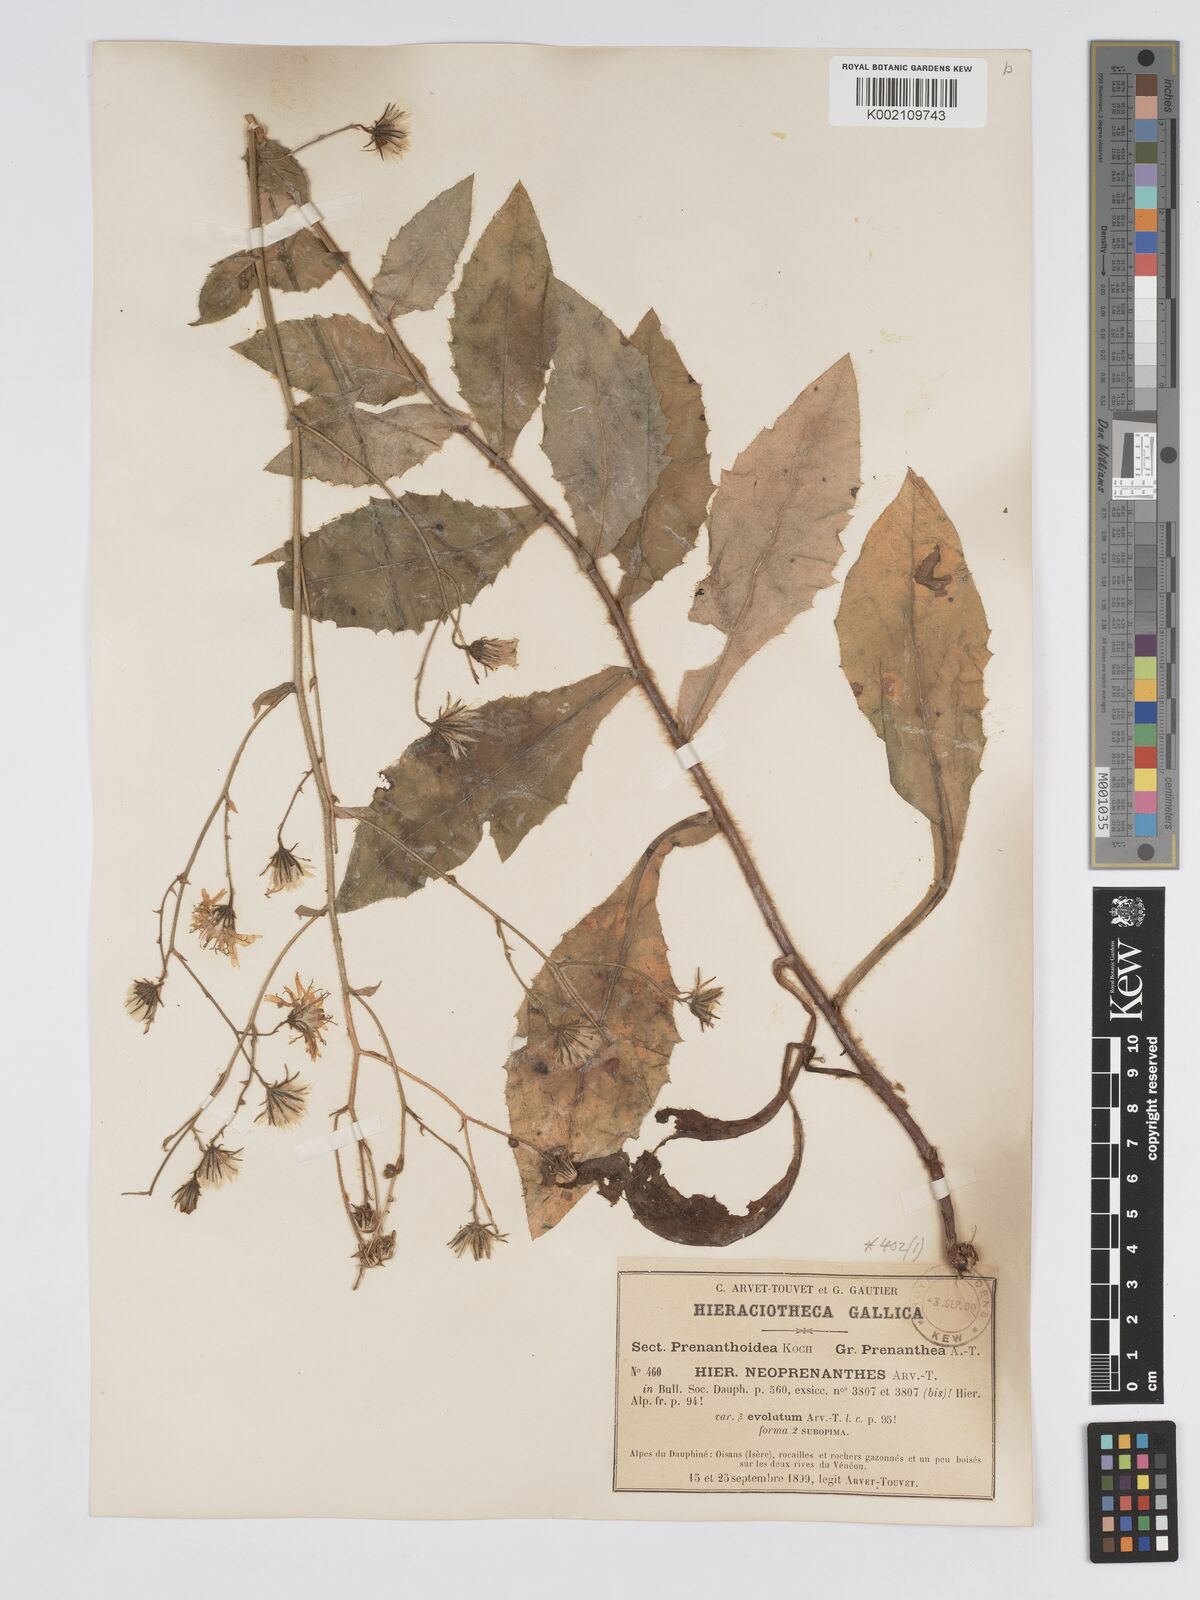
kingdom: Plantae
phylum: Tracheophyta
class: Magnoliopsida
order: Asterales
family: Asteraceae
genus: Hieracium
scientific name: Hieracium symphytaceum
